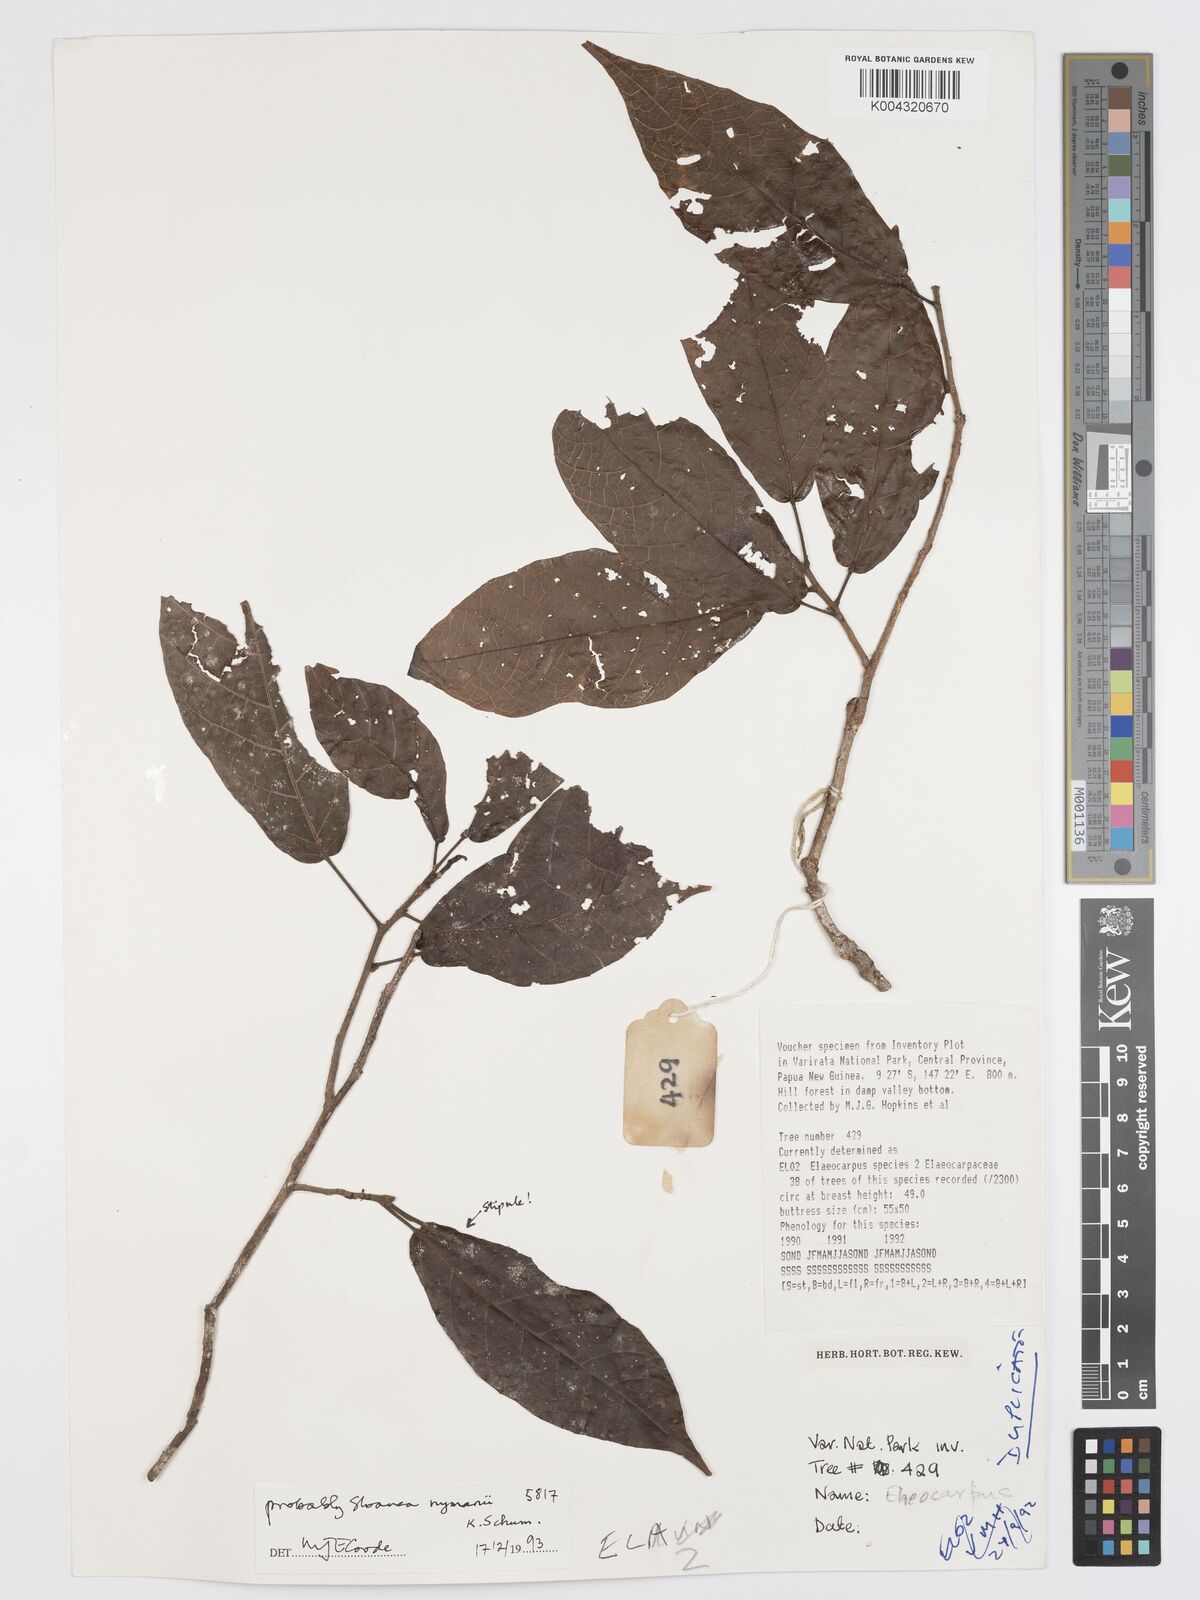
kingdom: Plantae
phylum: Tracheophyta
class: Magnoliopsida
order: Oxalidales
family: Elaeocarpaceae
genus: Sloanea
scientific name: Sloanea nymanii
